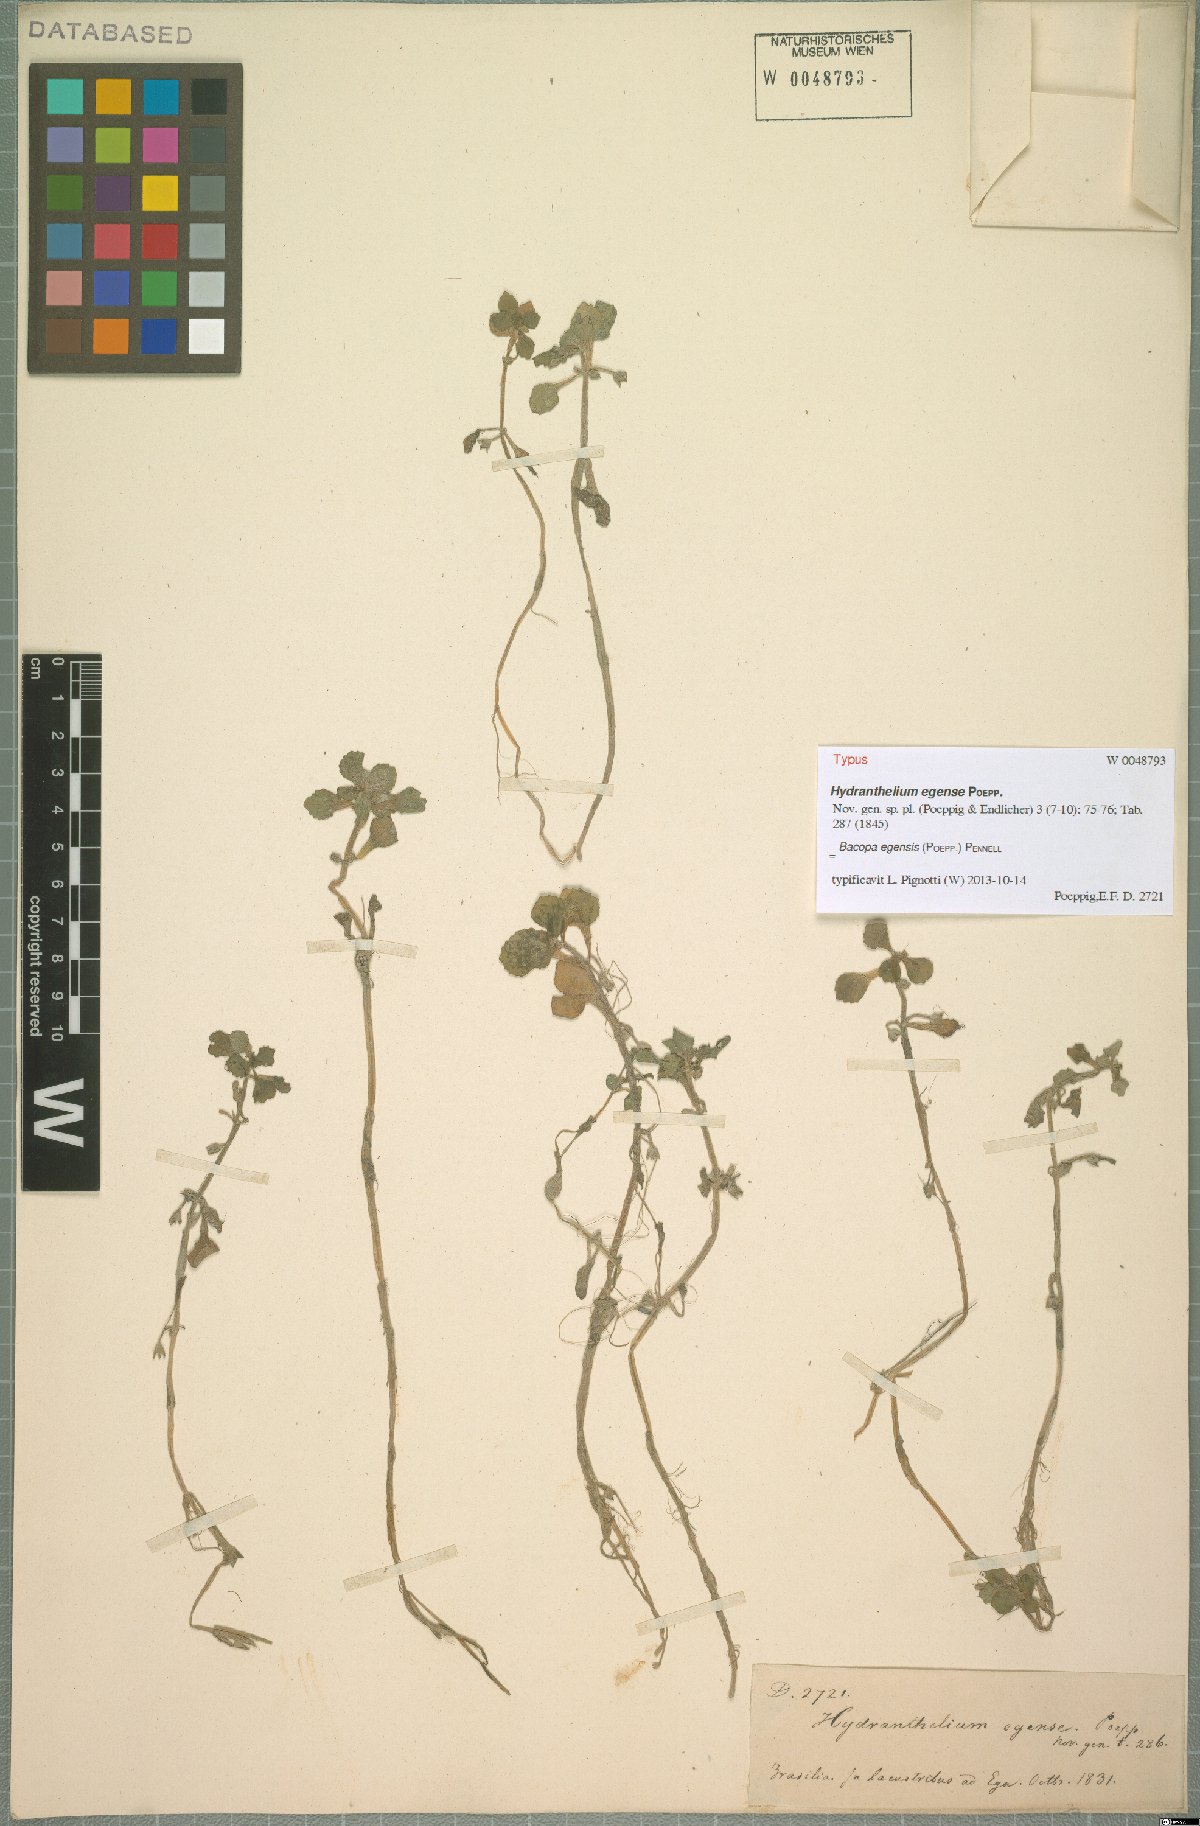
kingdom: Plantae
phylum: Tracheophyta
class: Magnoliopsida
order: Lamiales
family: Plantaginaceae
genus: Bacopa
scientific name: Bacopa egensis
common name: Brazilian waterhyssop
